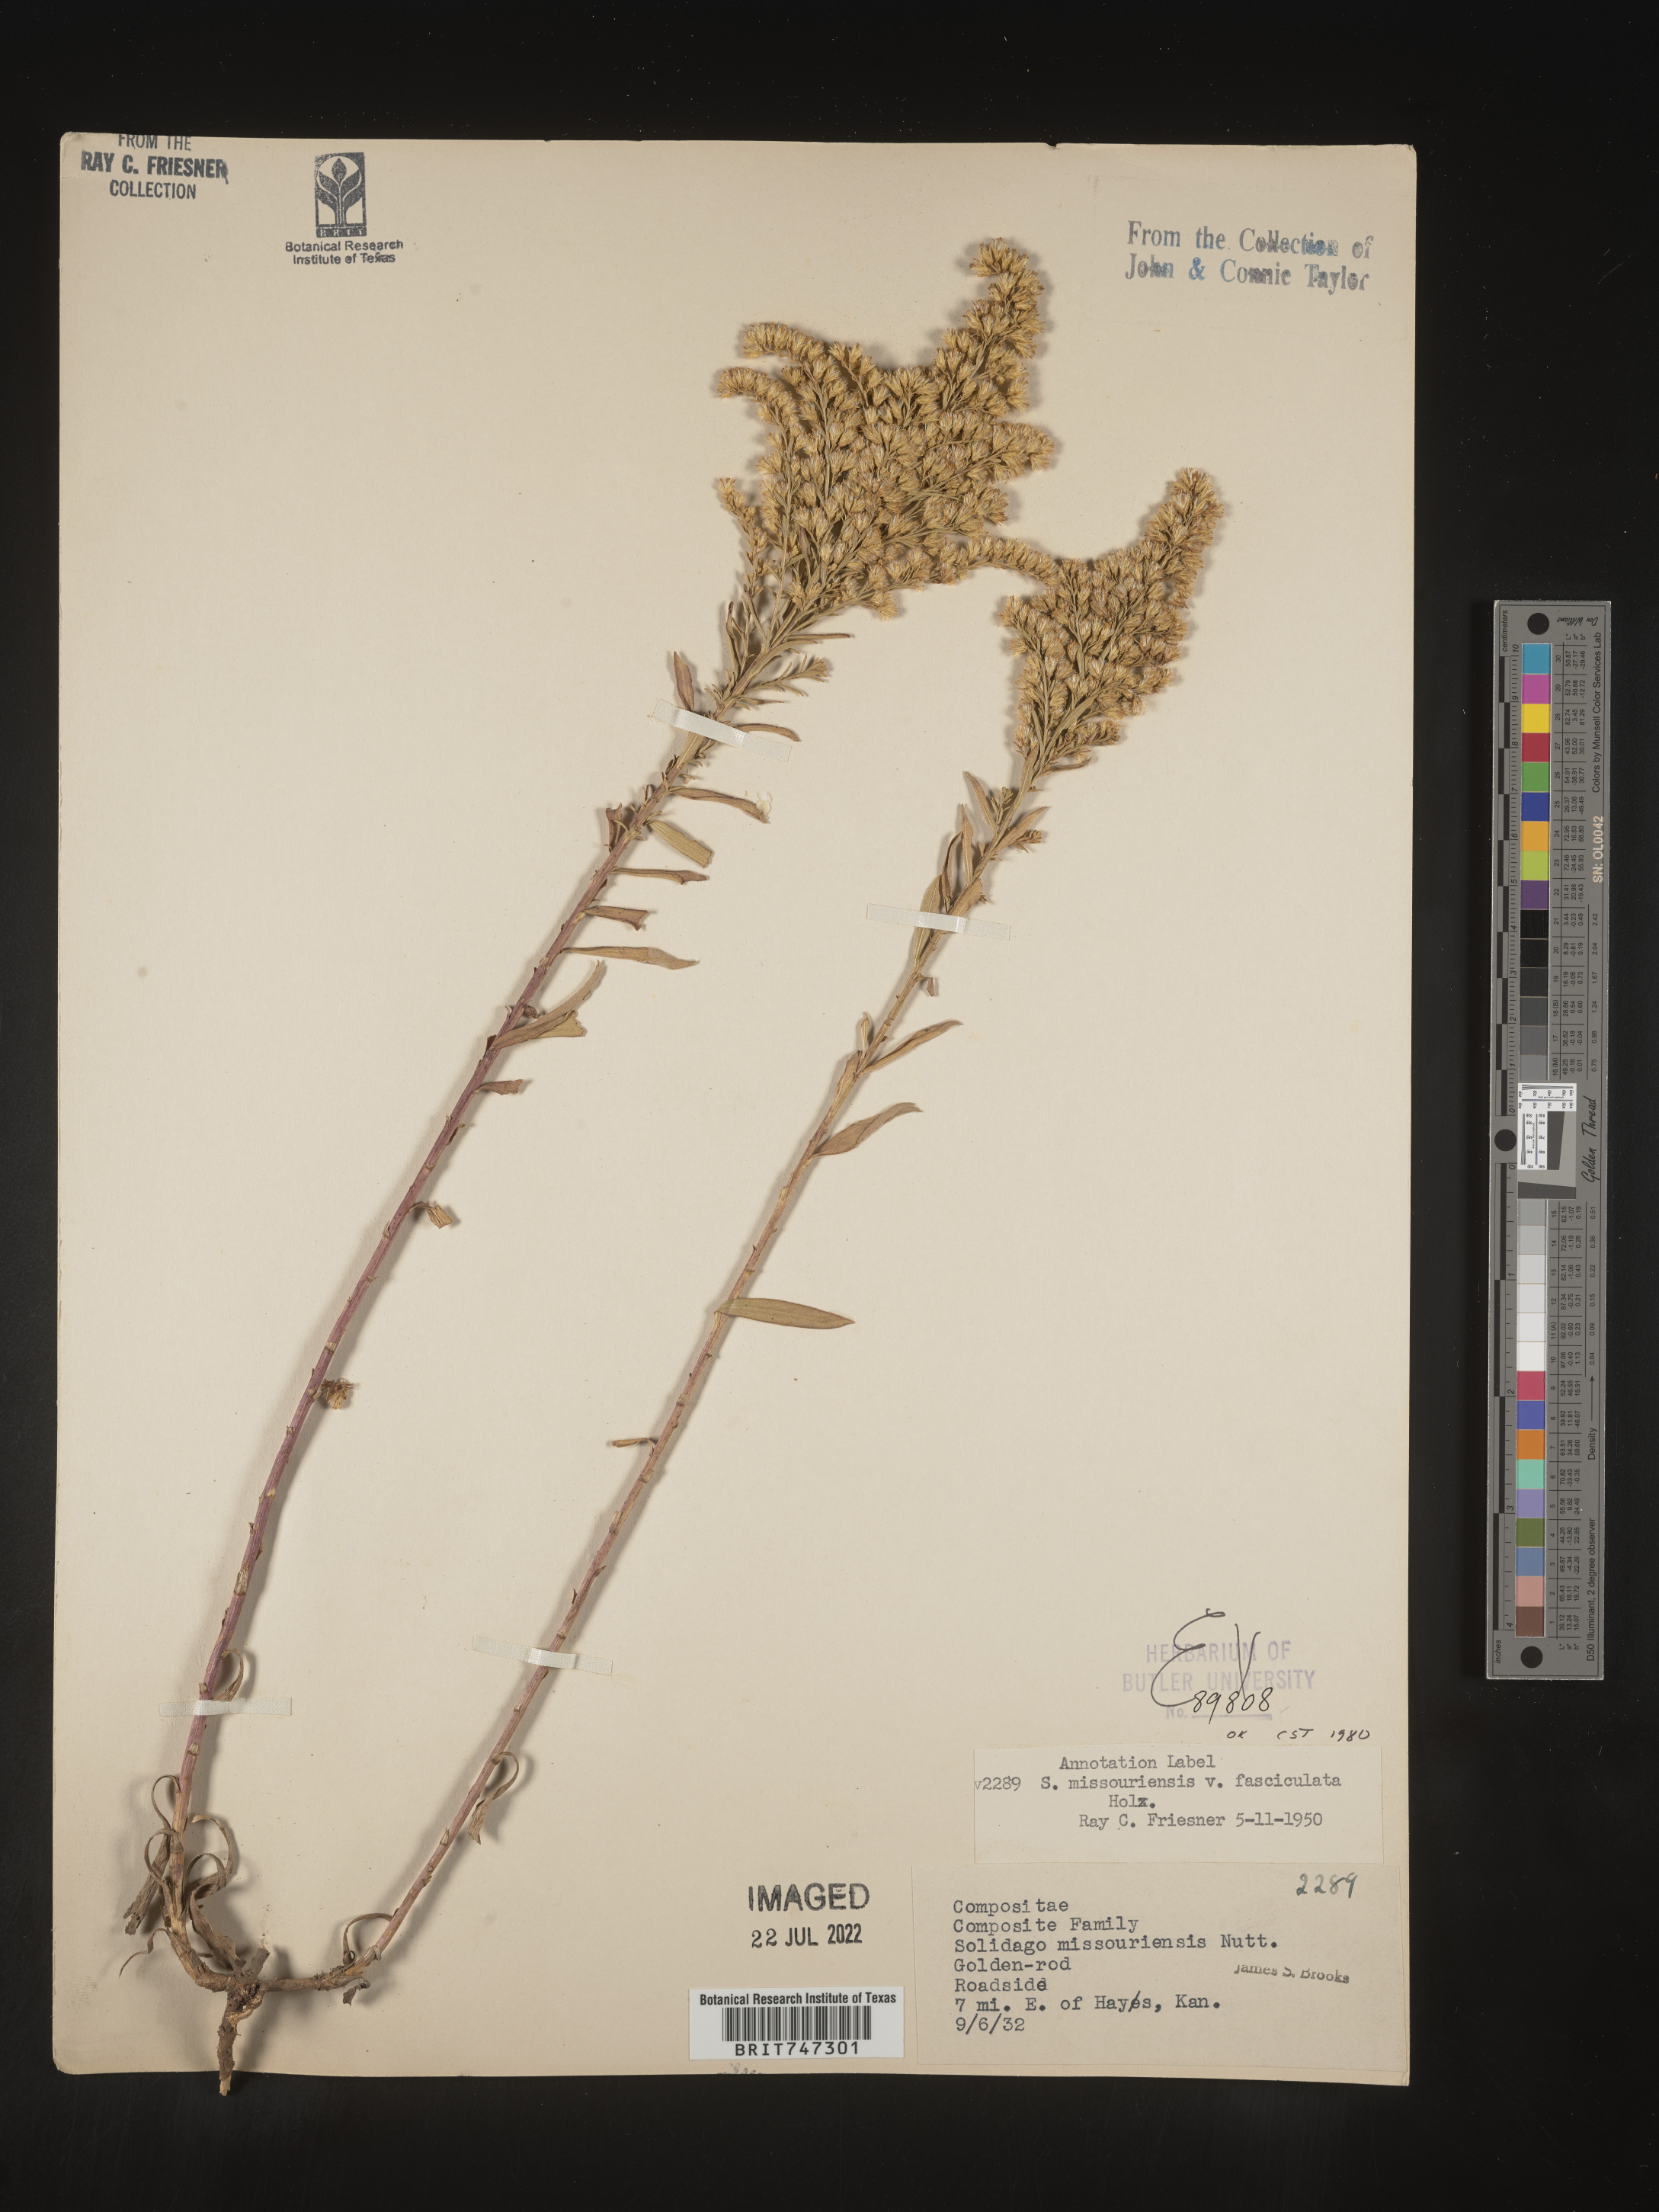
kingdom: Plantae
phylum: Tracheophyta
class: Magnoliopsida
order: Asterales
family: Asteraceae
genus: Solidago
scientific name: Solidago missouriensis
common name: Prairie goldenrod
